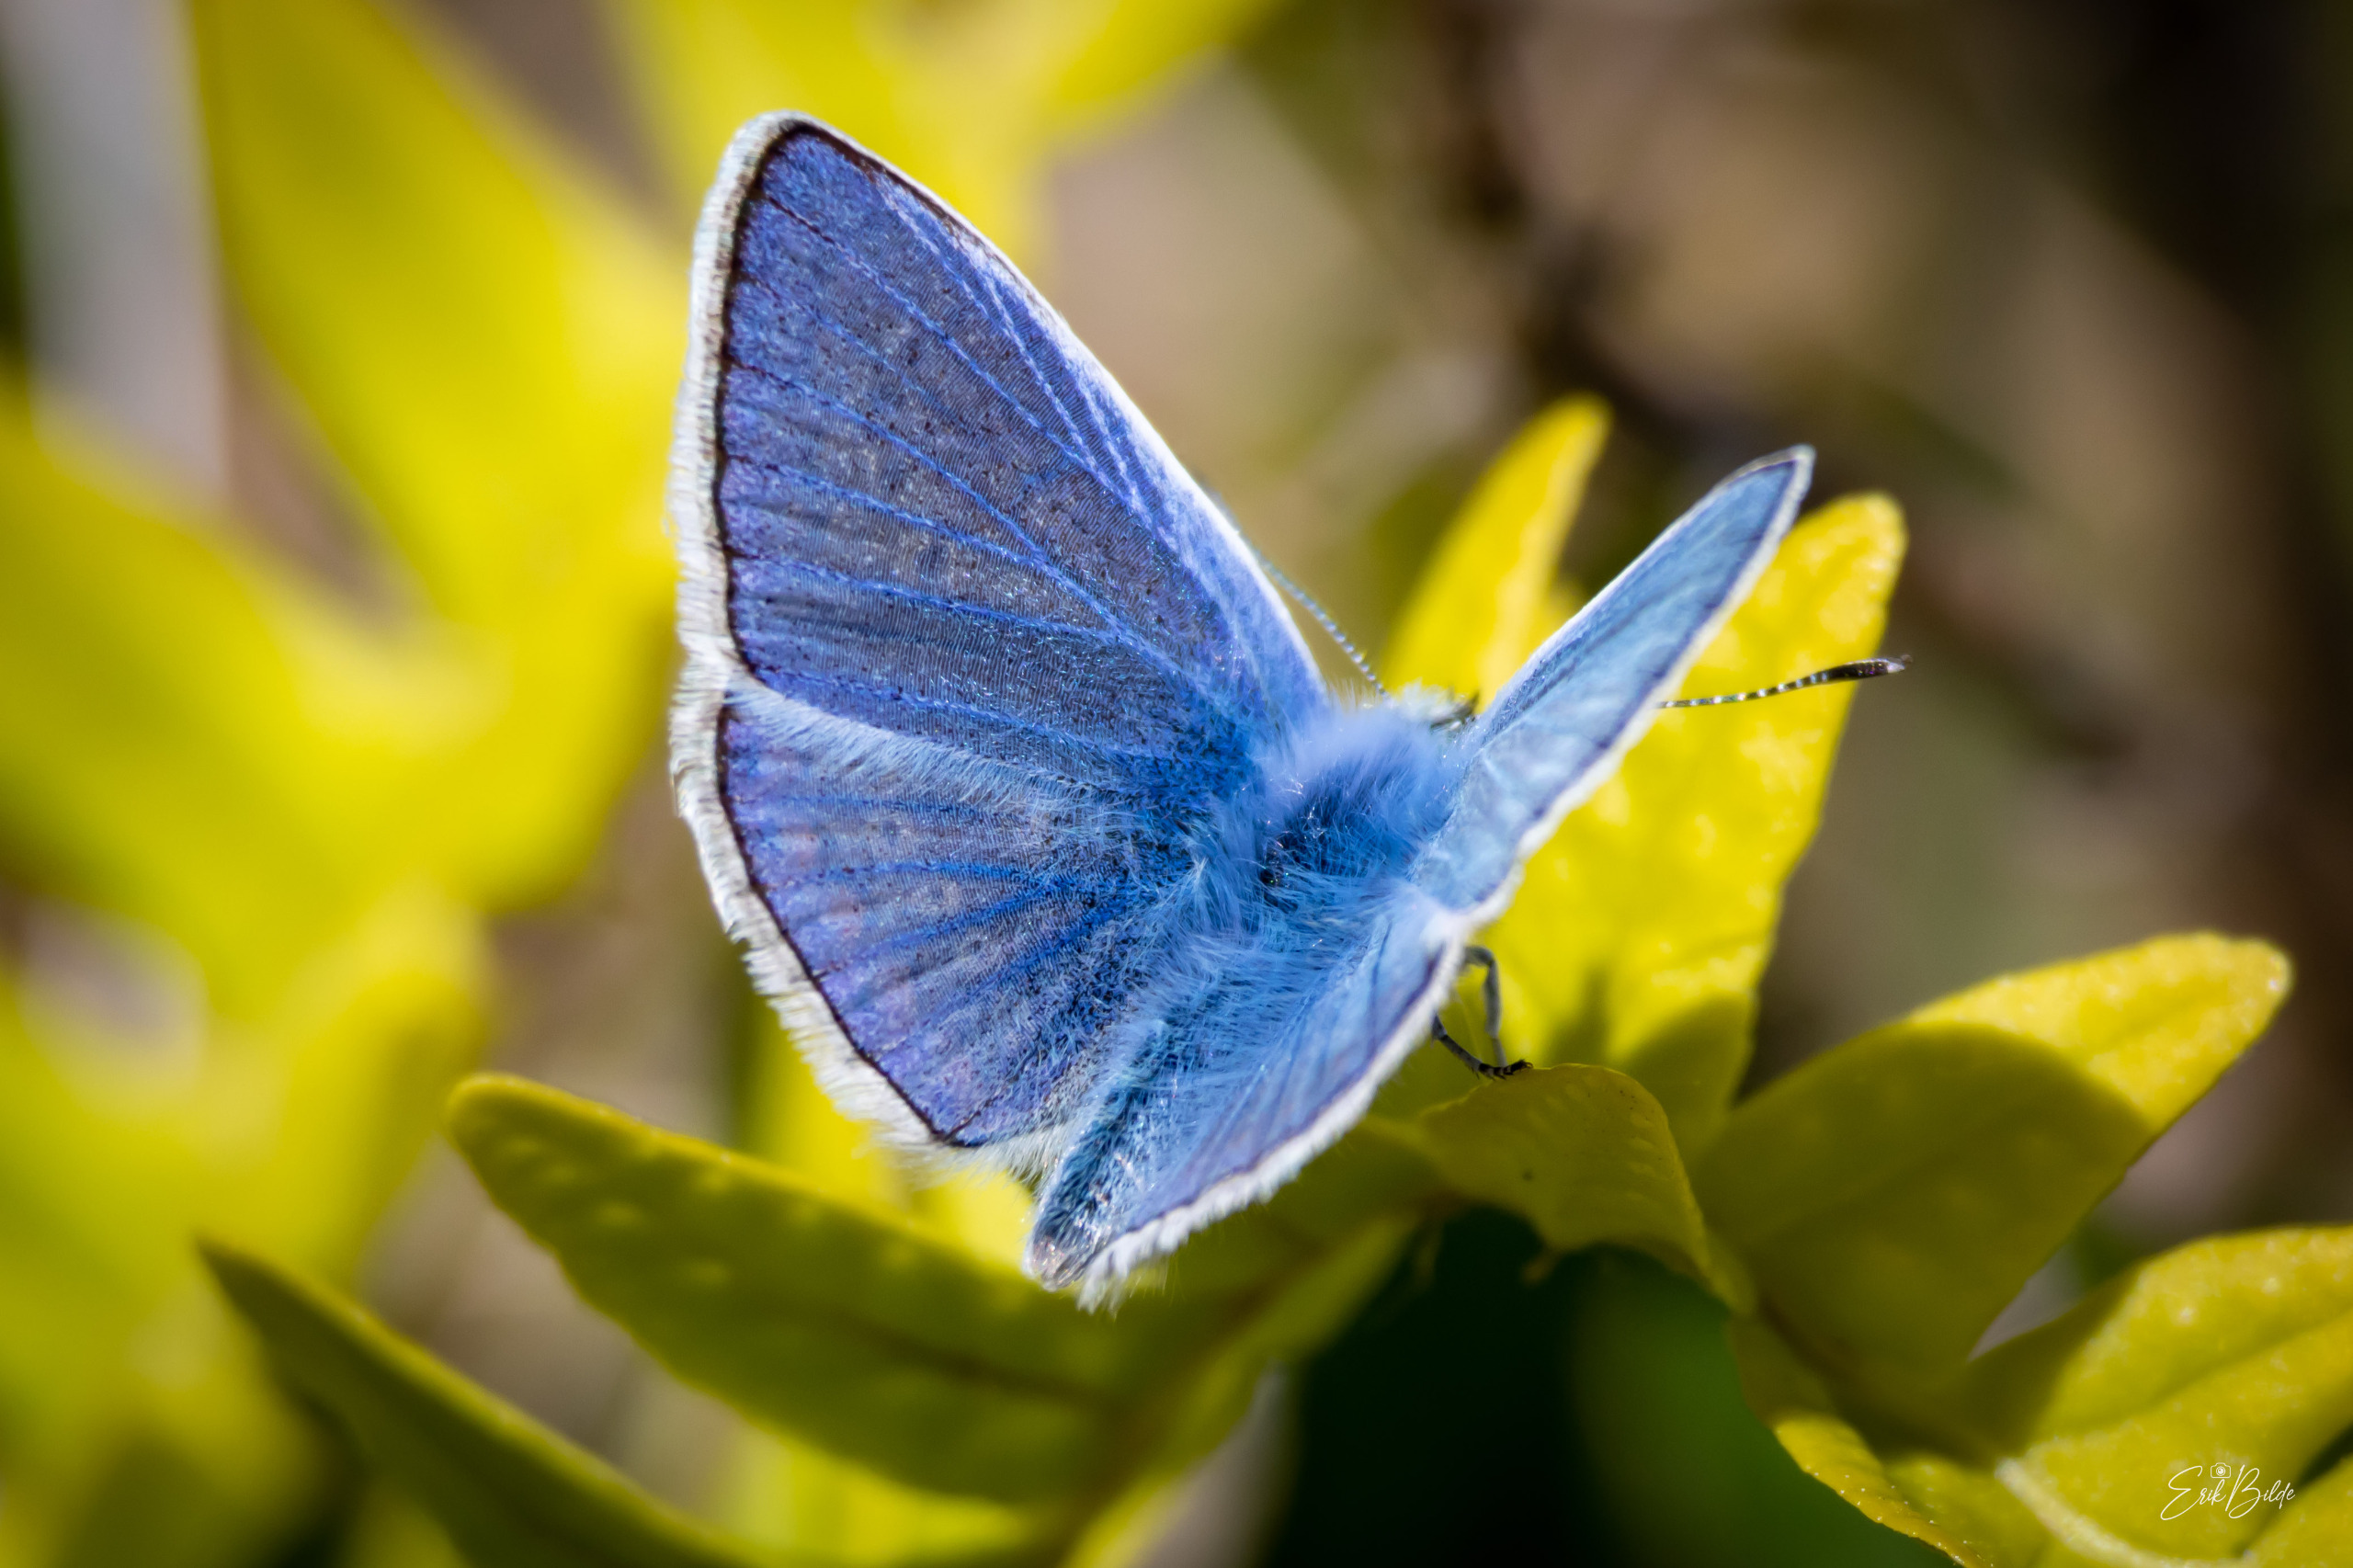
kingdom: Animalia
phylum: Arthropoda
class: Insecta
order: Lepidoptera
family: Lycaenidae
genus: Polyommatus
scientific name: Polyommatus icarus
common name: Almindelig blåfugl
